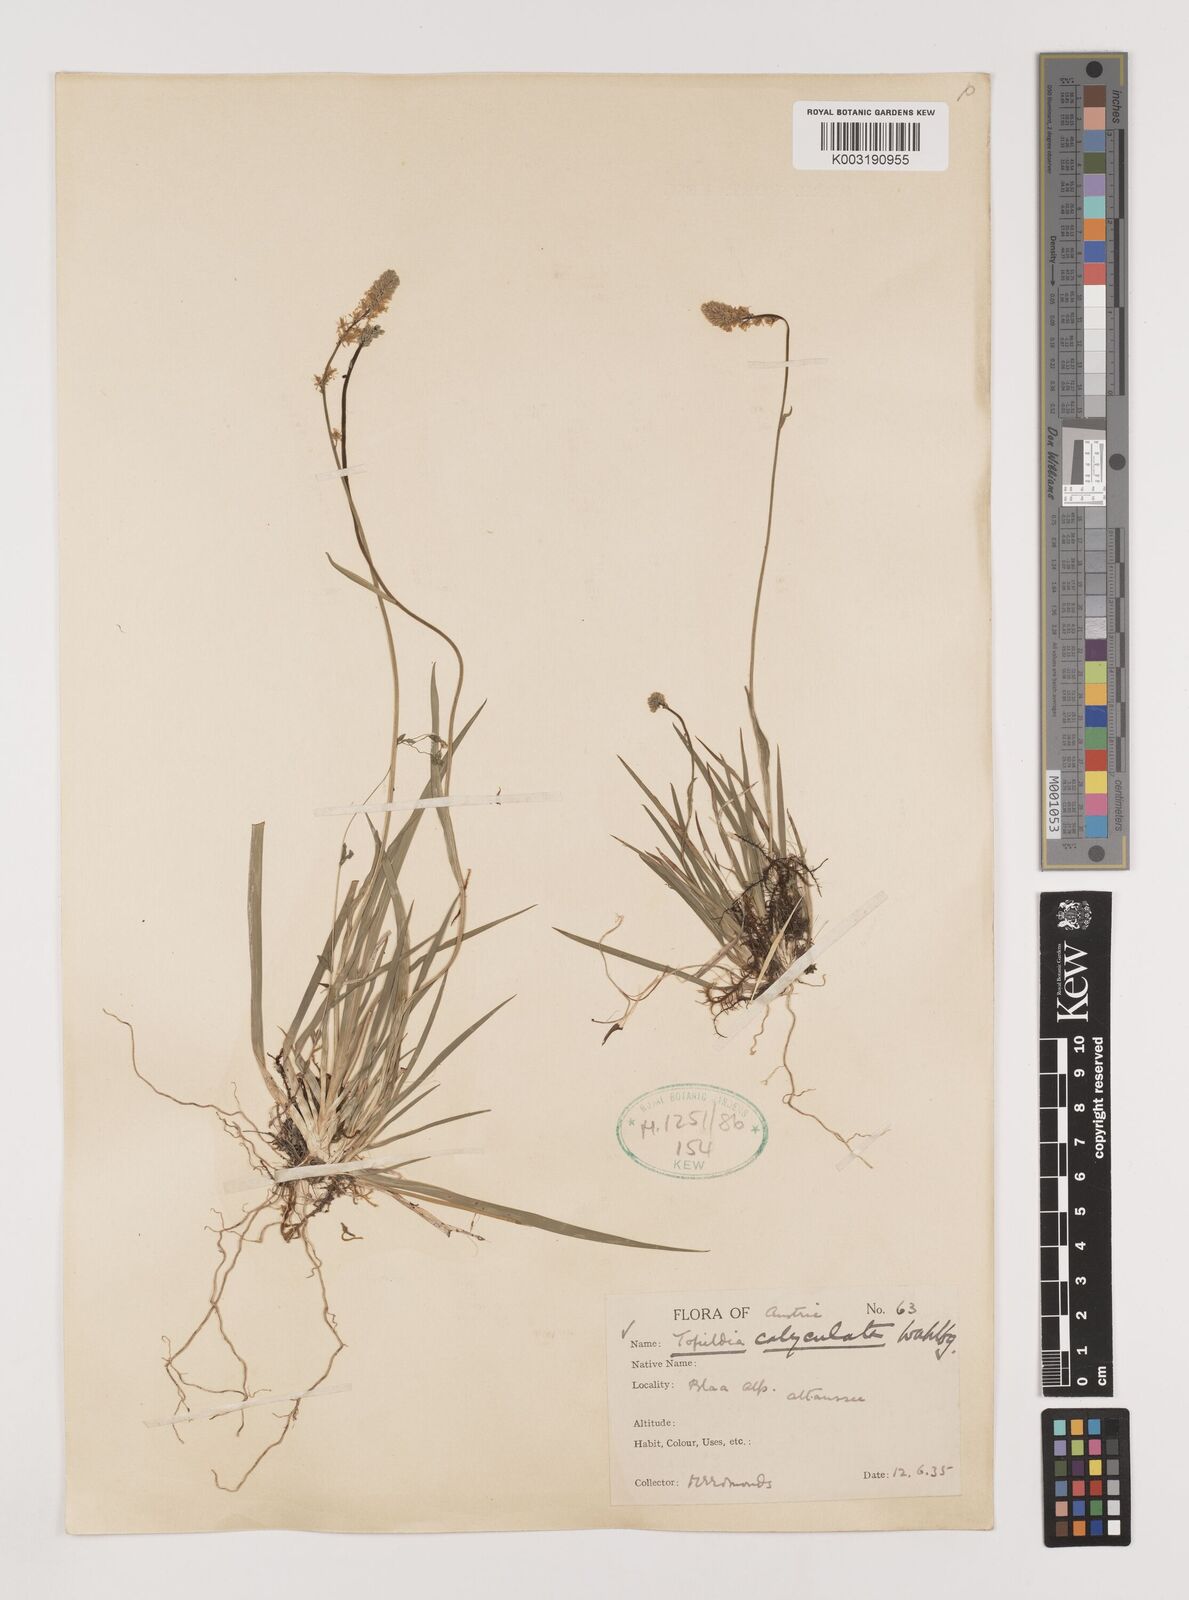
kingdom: Plantae
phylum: Tracheophyta
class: Liliopsida
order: Alismatales
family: Tofieldiaceae
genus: Tofieldia
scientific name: Tofieldia calyculata
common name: German-asphodel
